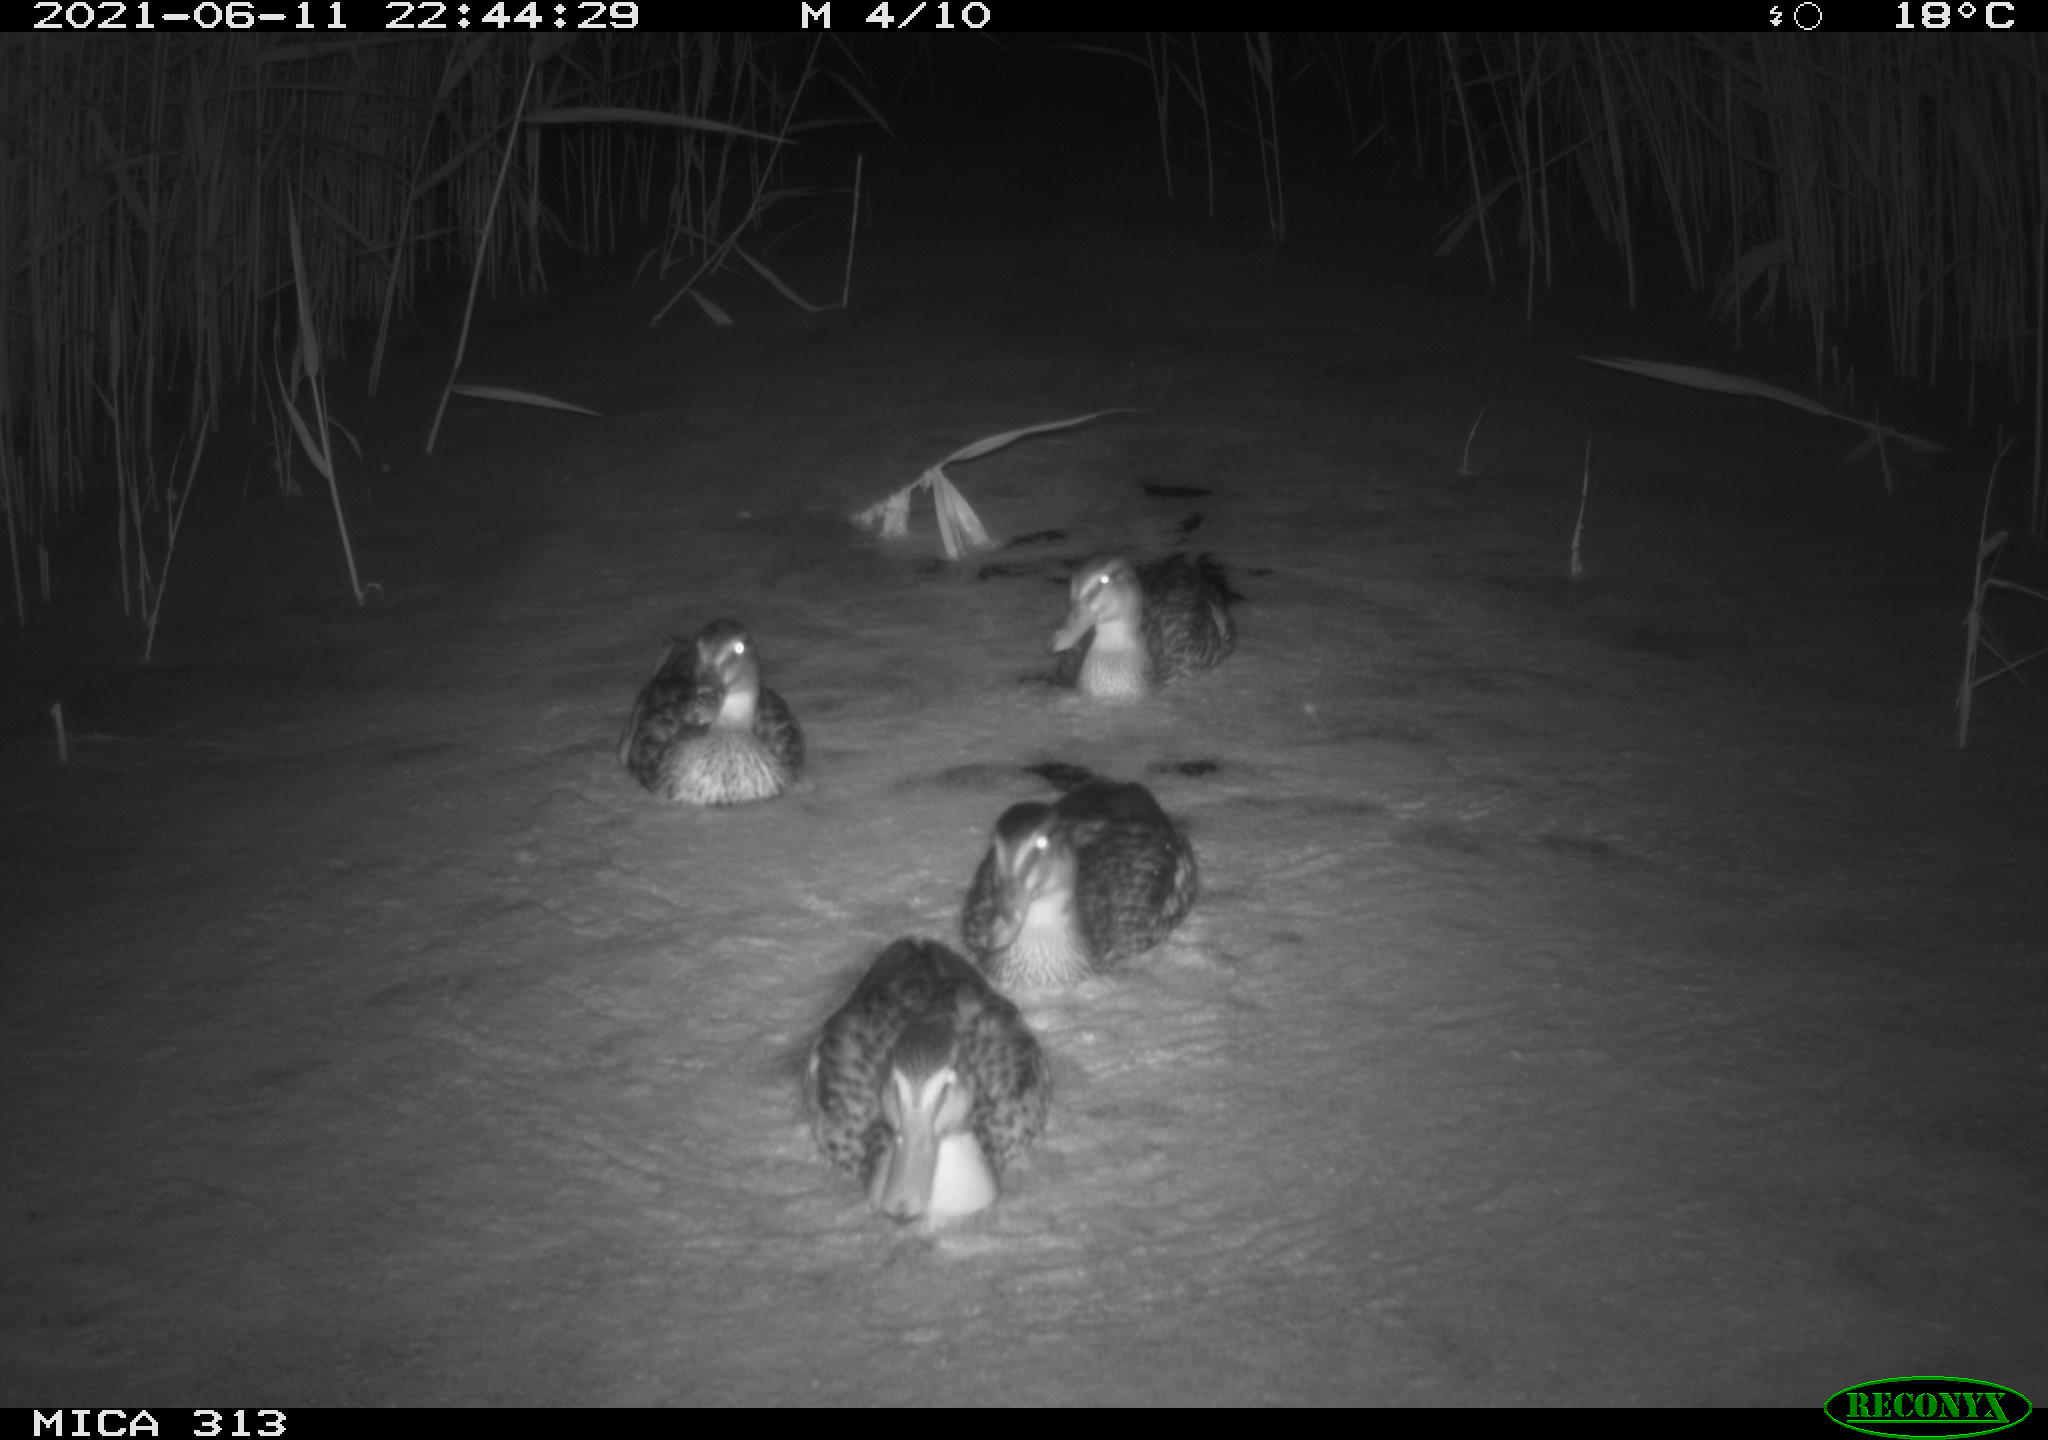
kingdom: Animalia
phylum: Chordata
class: Aves
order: Gruiformes
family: Rallidae
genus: Fulica
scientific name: Fulica atra
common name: Eurasian coot
